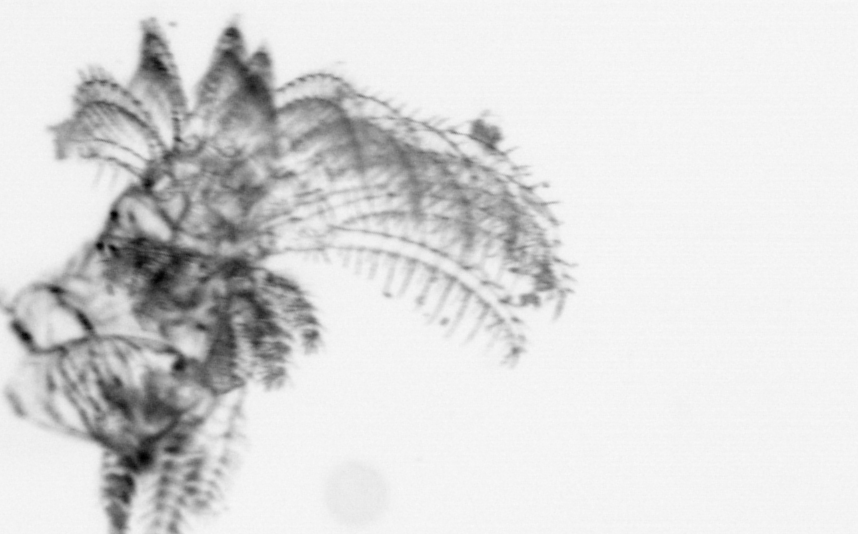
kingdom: Animalia
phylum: Arthropoda
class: Maxillopoda
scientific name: Maxillopoda
